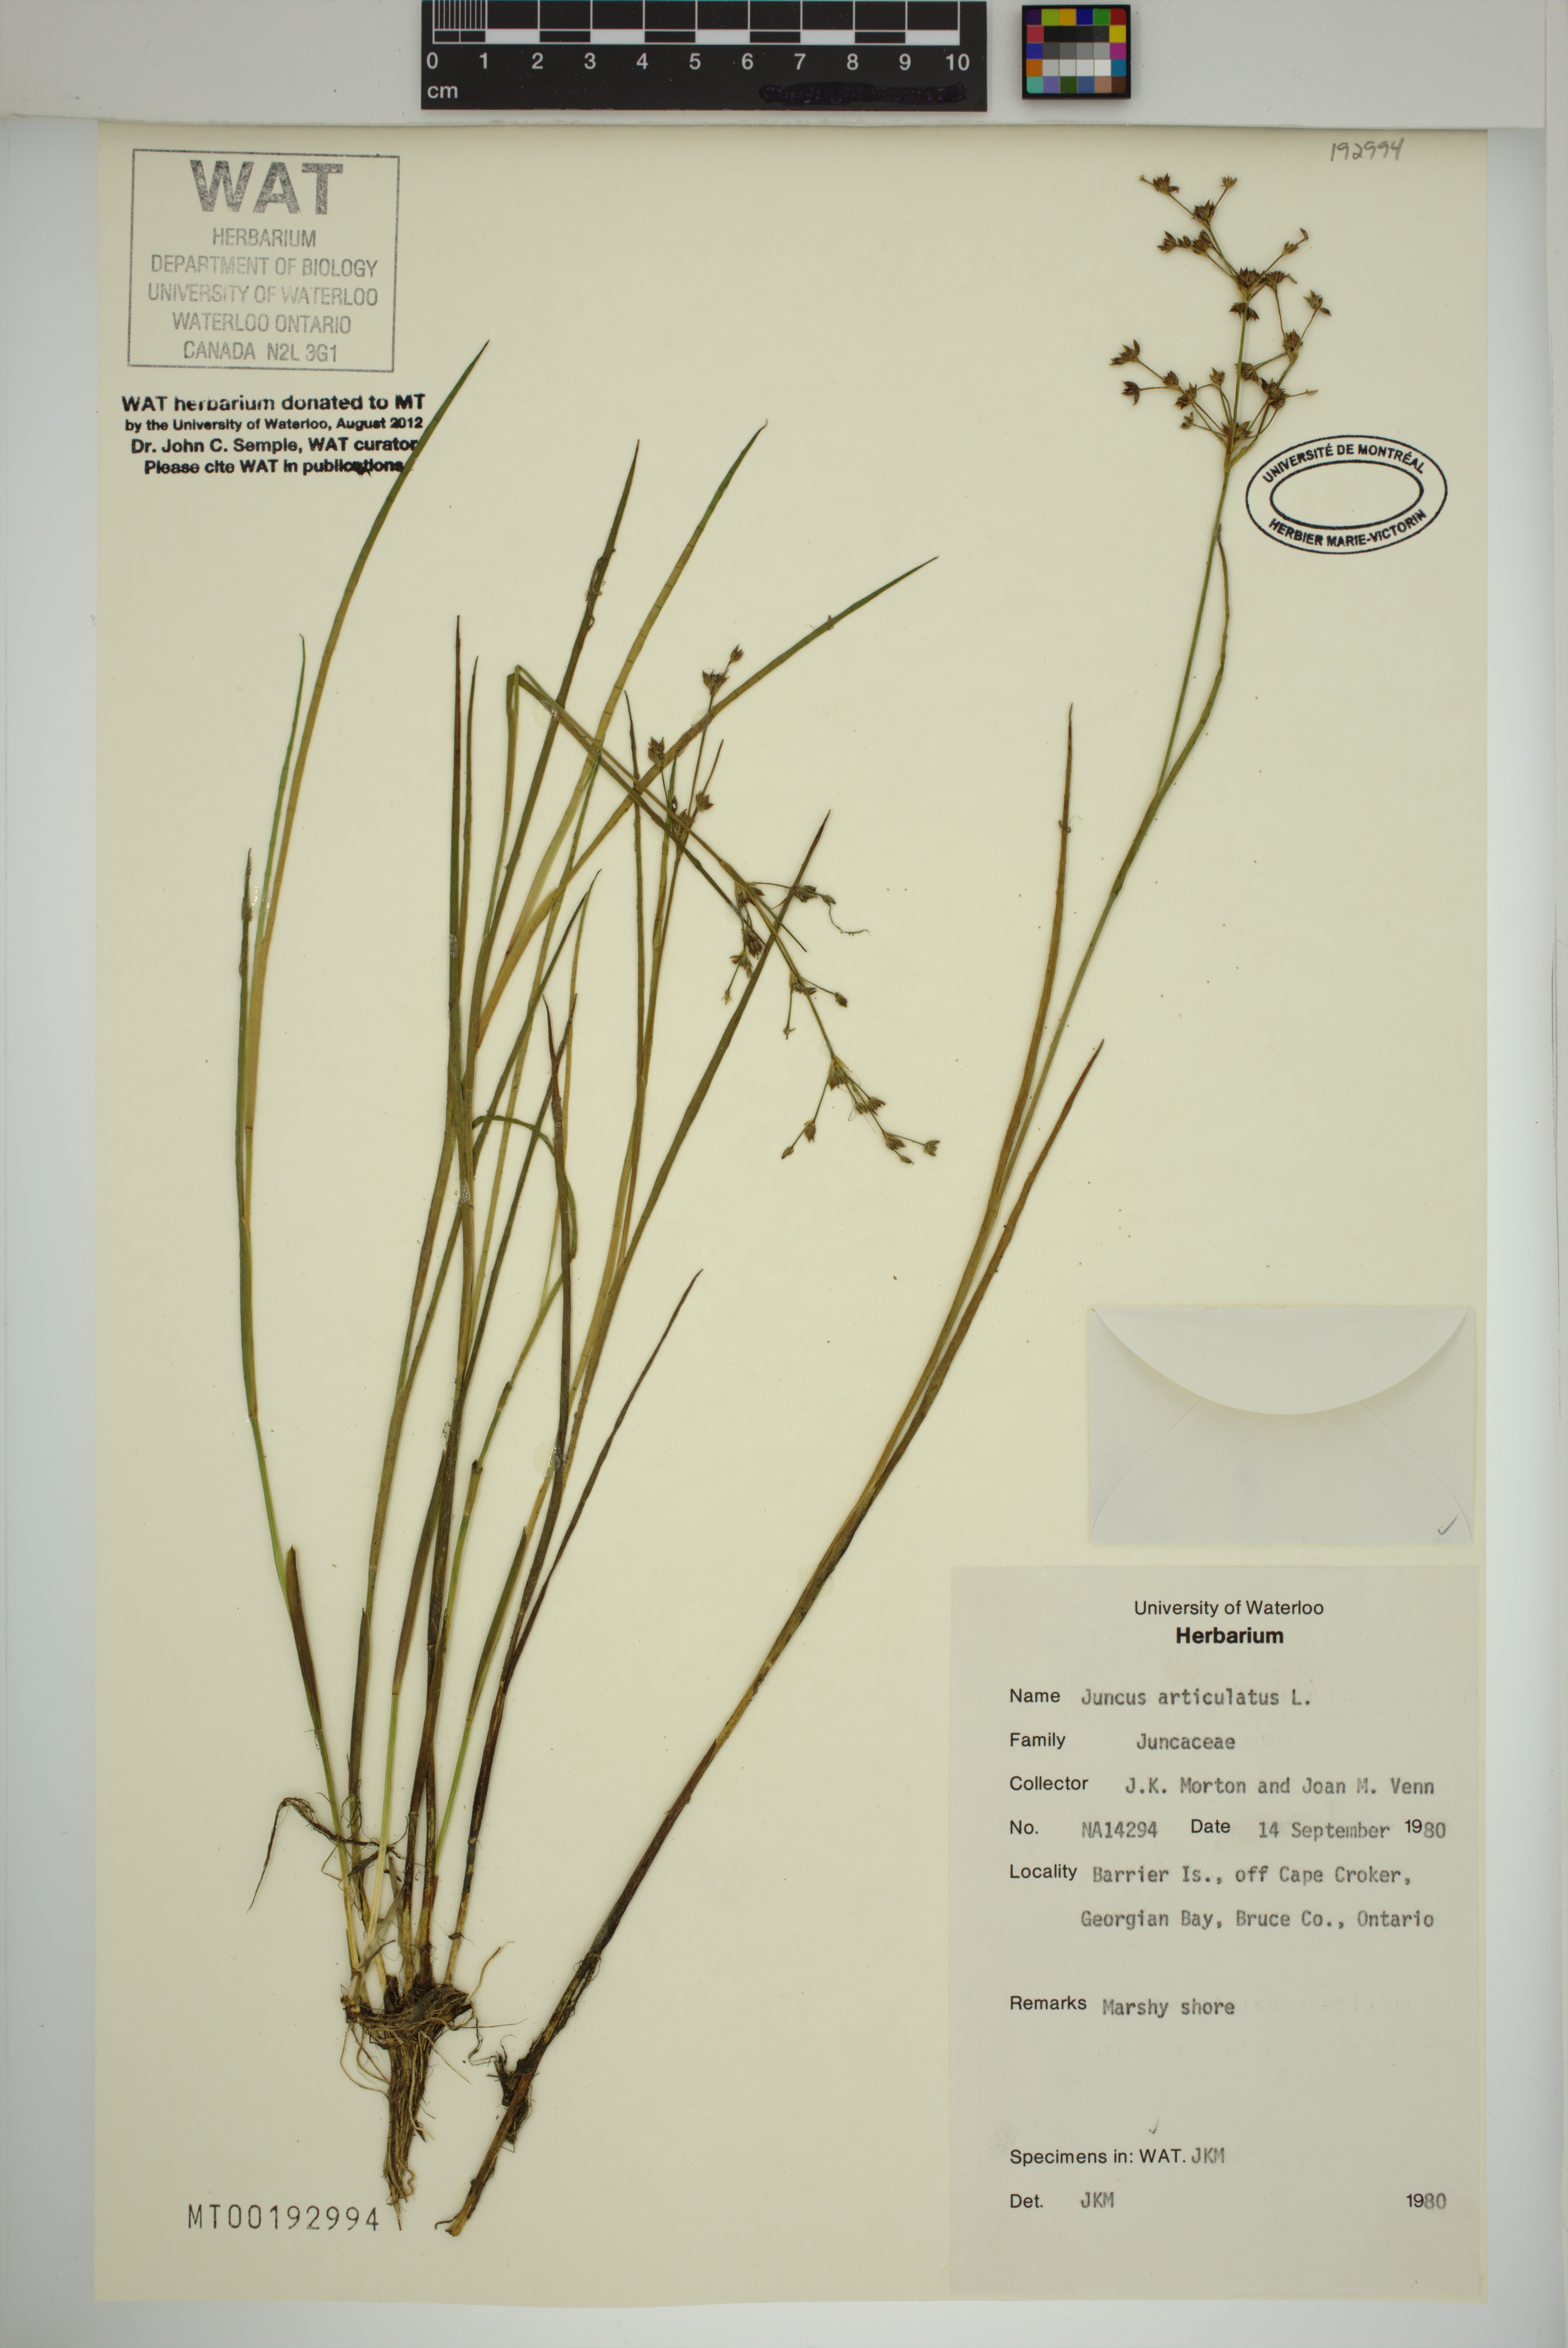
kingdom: Plantae
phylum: Tracheophyta
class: Liliopsida
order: Poales
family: Juncaceae
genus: Juncus
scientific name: Juncus articulatus
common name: Jointed rush
